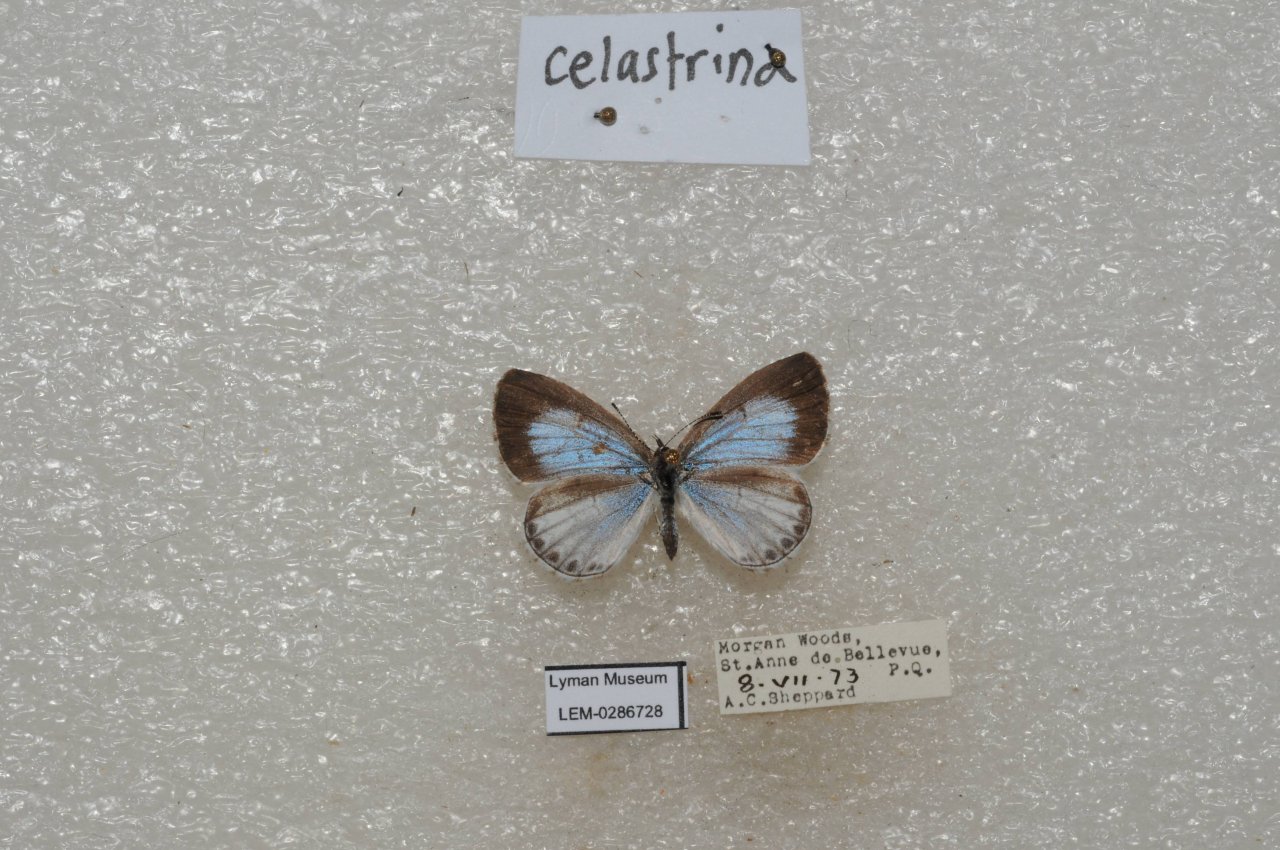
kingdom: Animalia
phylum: Arthropoda
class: Insecta
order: Lepidoptera
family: Lycaenidae
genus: Celastrina
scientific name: Celastrina lucia
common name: Northern Spring Azure
